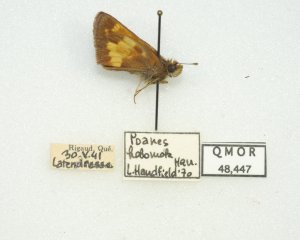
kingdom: Animalia
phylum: Arthropoda
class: Insecta
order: Lepidoptera
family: Hesperiidae
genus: Lon
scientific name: Lon hobomok
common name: Hobomok Skipper
